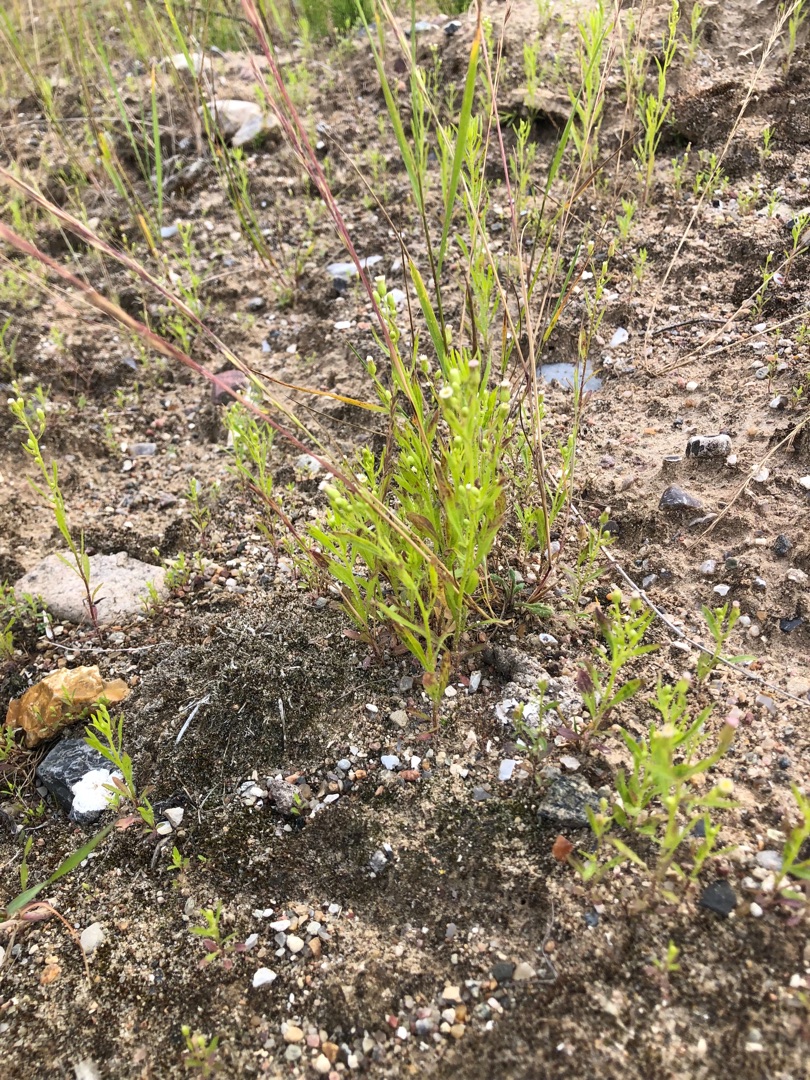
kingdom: Plantae
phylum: Tracheophyta
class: Magnoliopsida
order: Asterales
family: Asteraceae
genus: Erigeron
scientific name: Erigeron canadensis
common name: Kanadisk bakkestjerne
